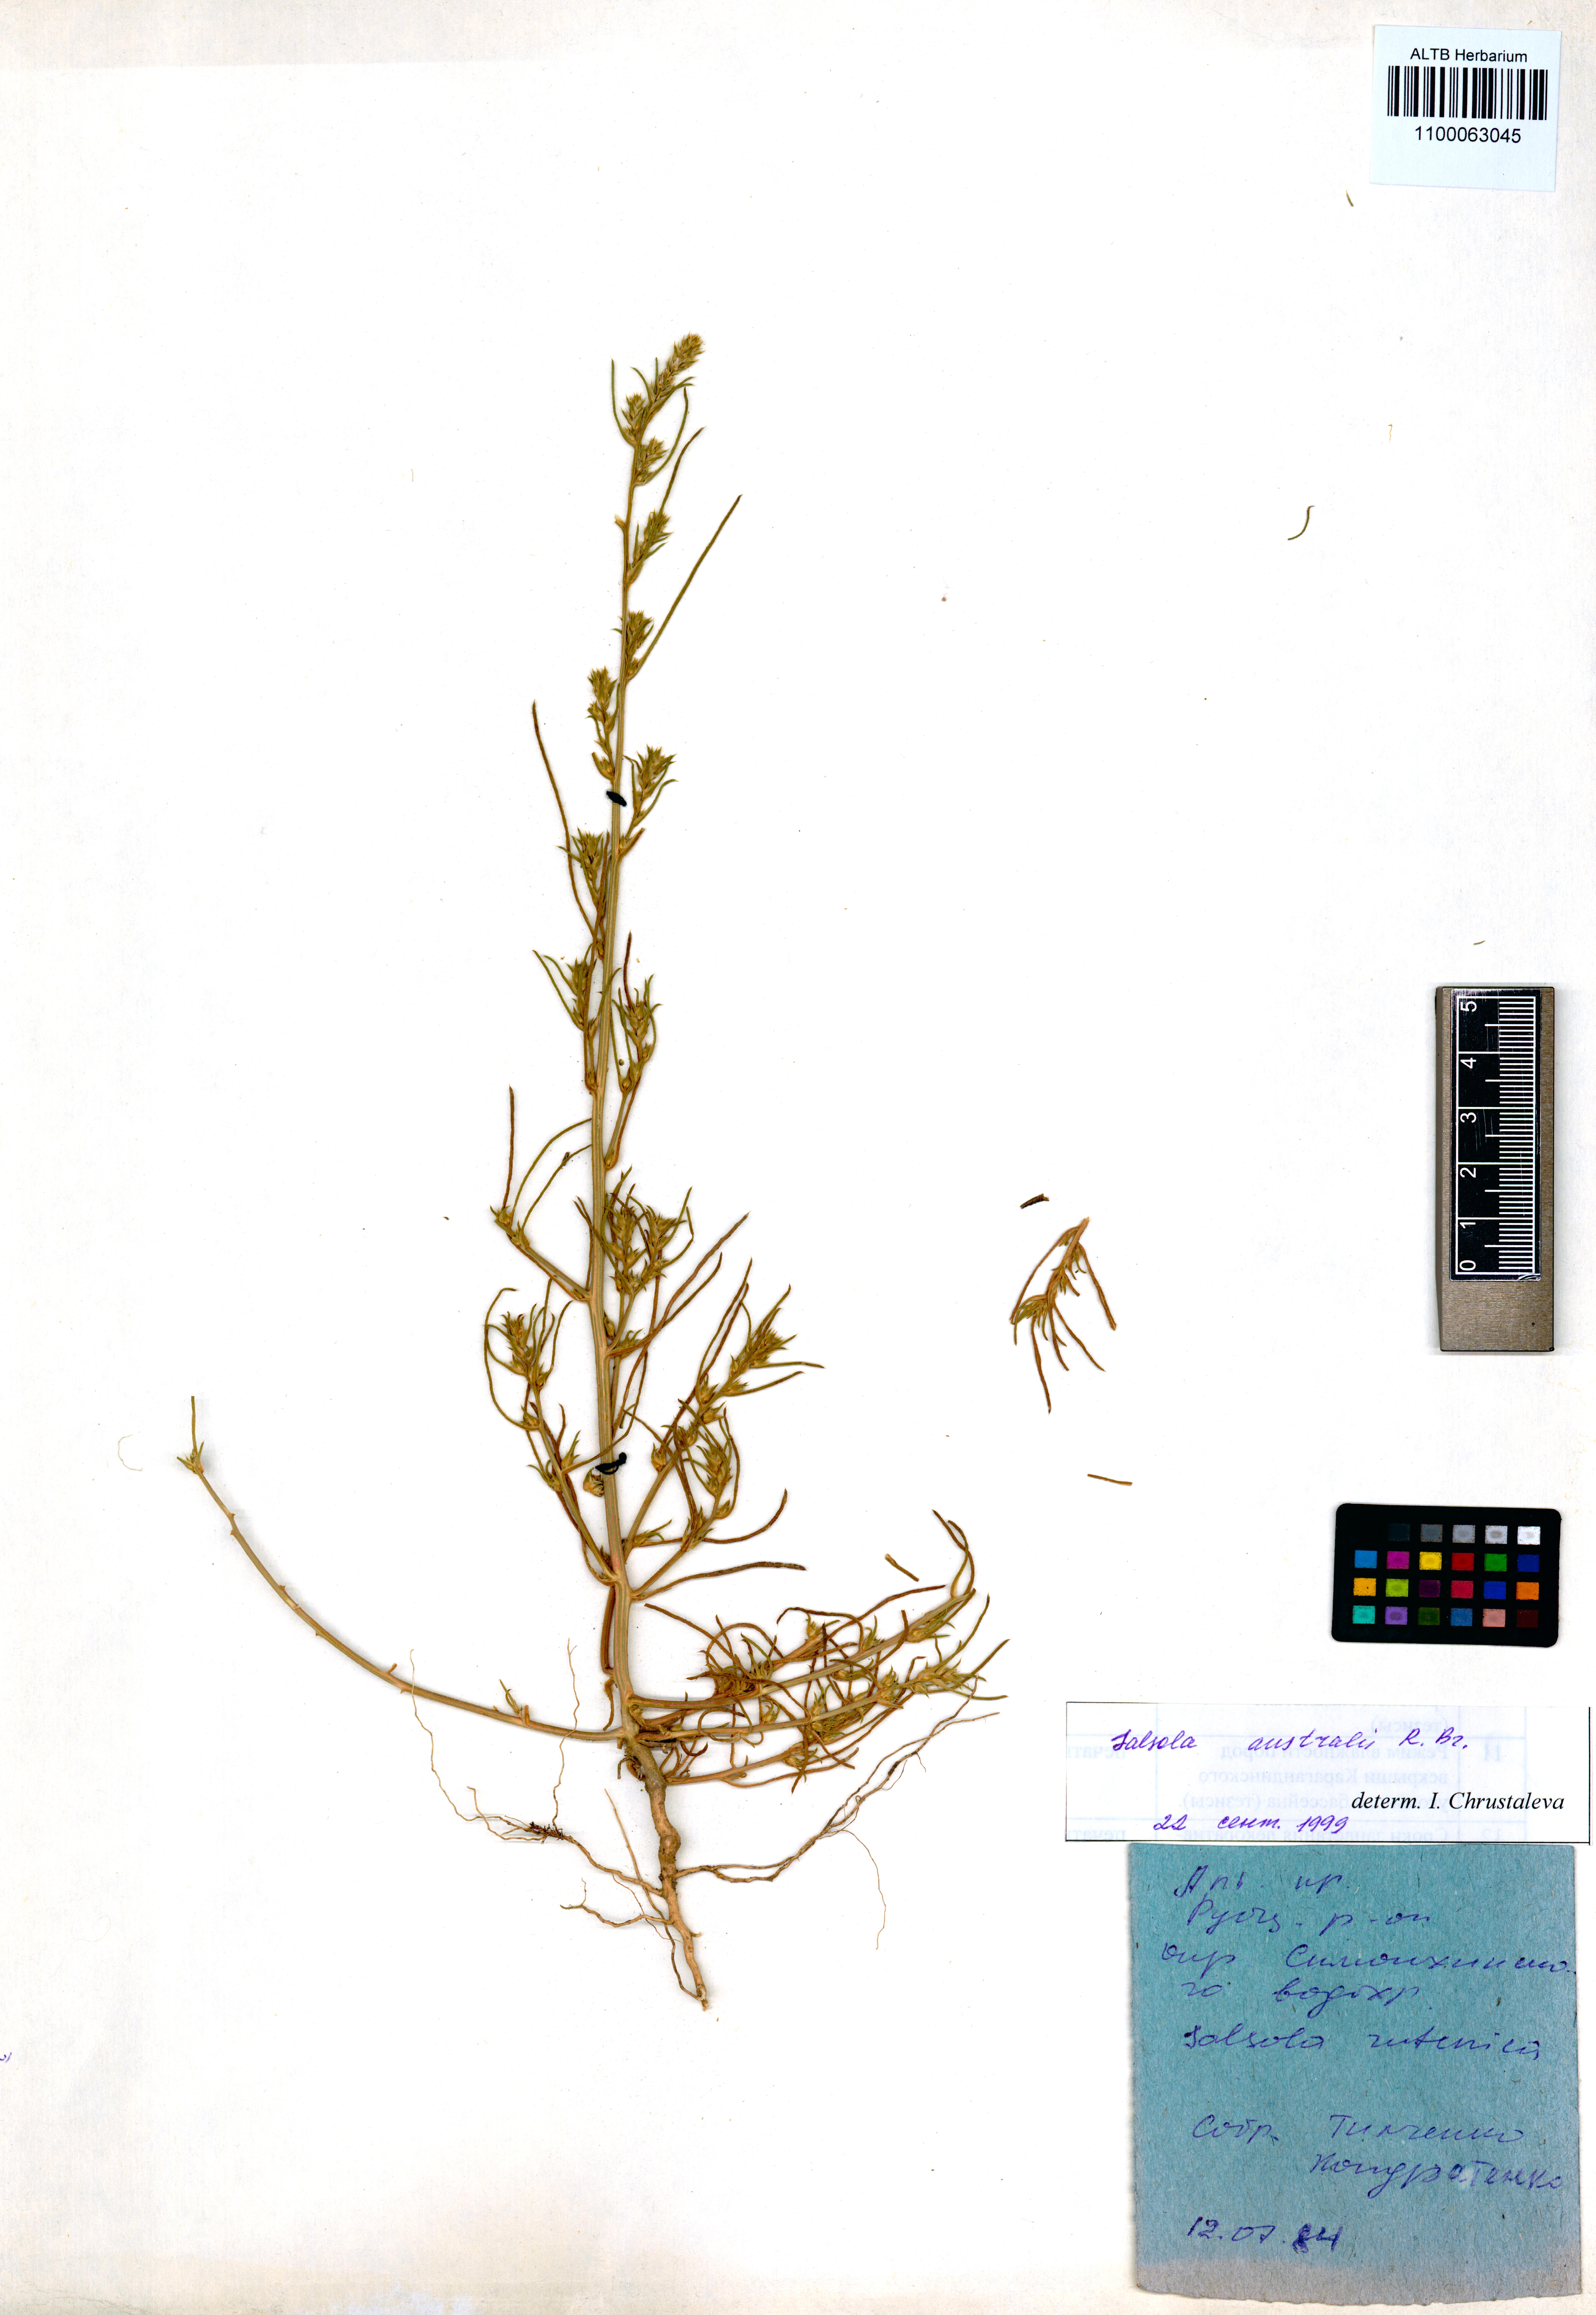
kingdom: Plantae
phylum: Tracheophyta
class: Magnoliopsida
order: Caryophyllales
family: Amaranthaceae
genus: Salsola
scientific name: Salsola australis
